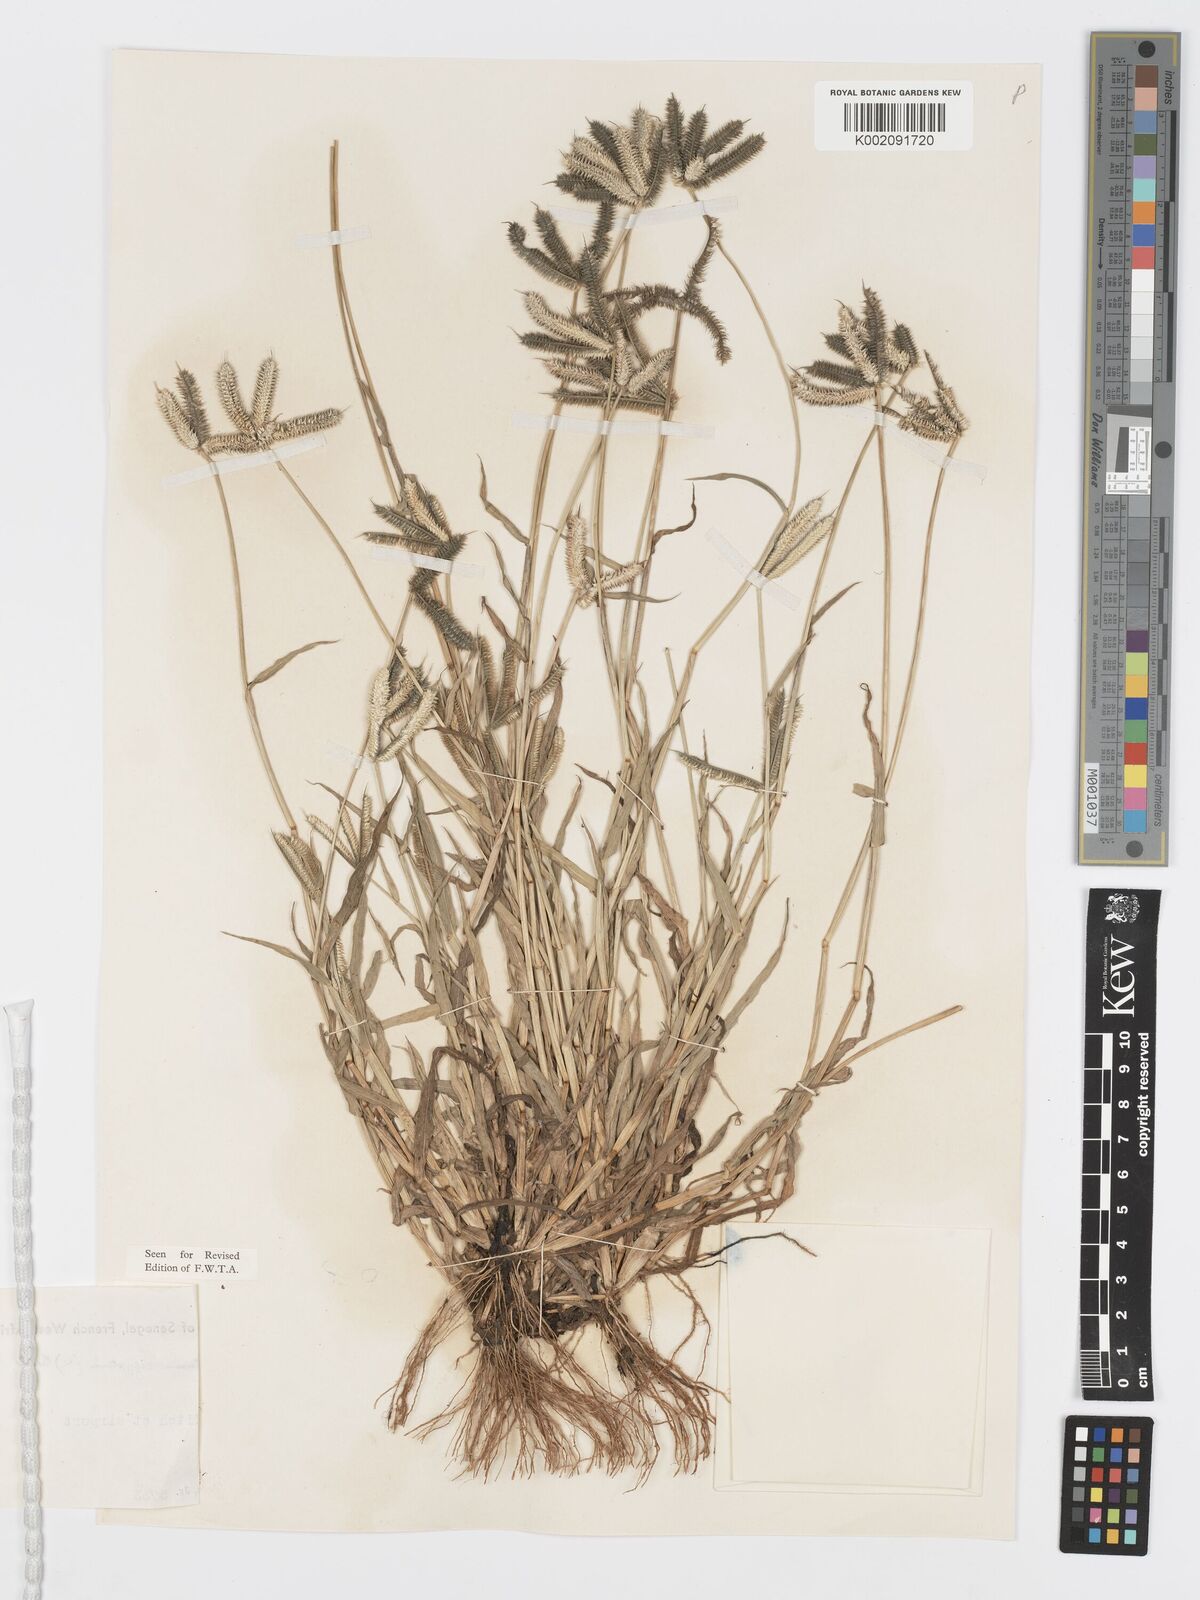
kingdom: Plantae
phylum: Tracheophyta
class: Liliopsida
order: Poales
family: Poaceae
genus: Dactyloctenium
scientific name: Dactyloctenium aegyptium
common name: Egyptian grass
